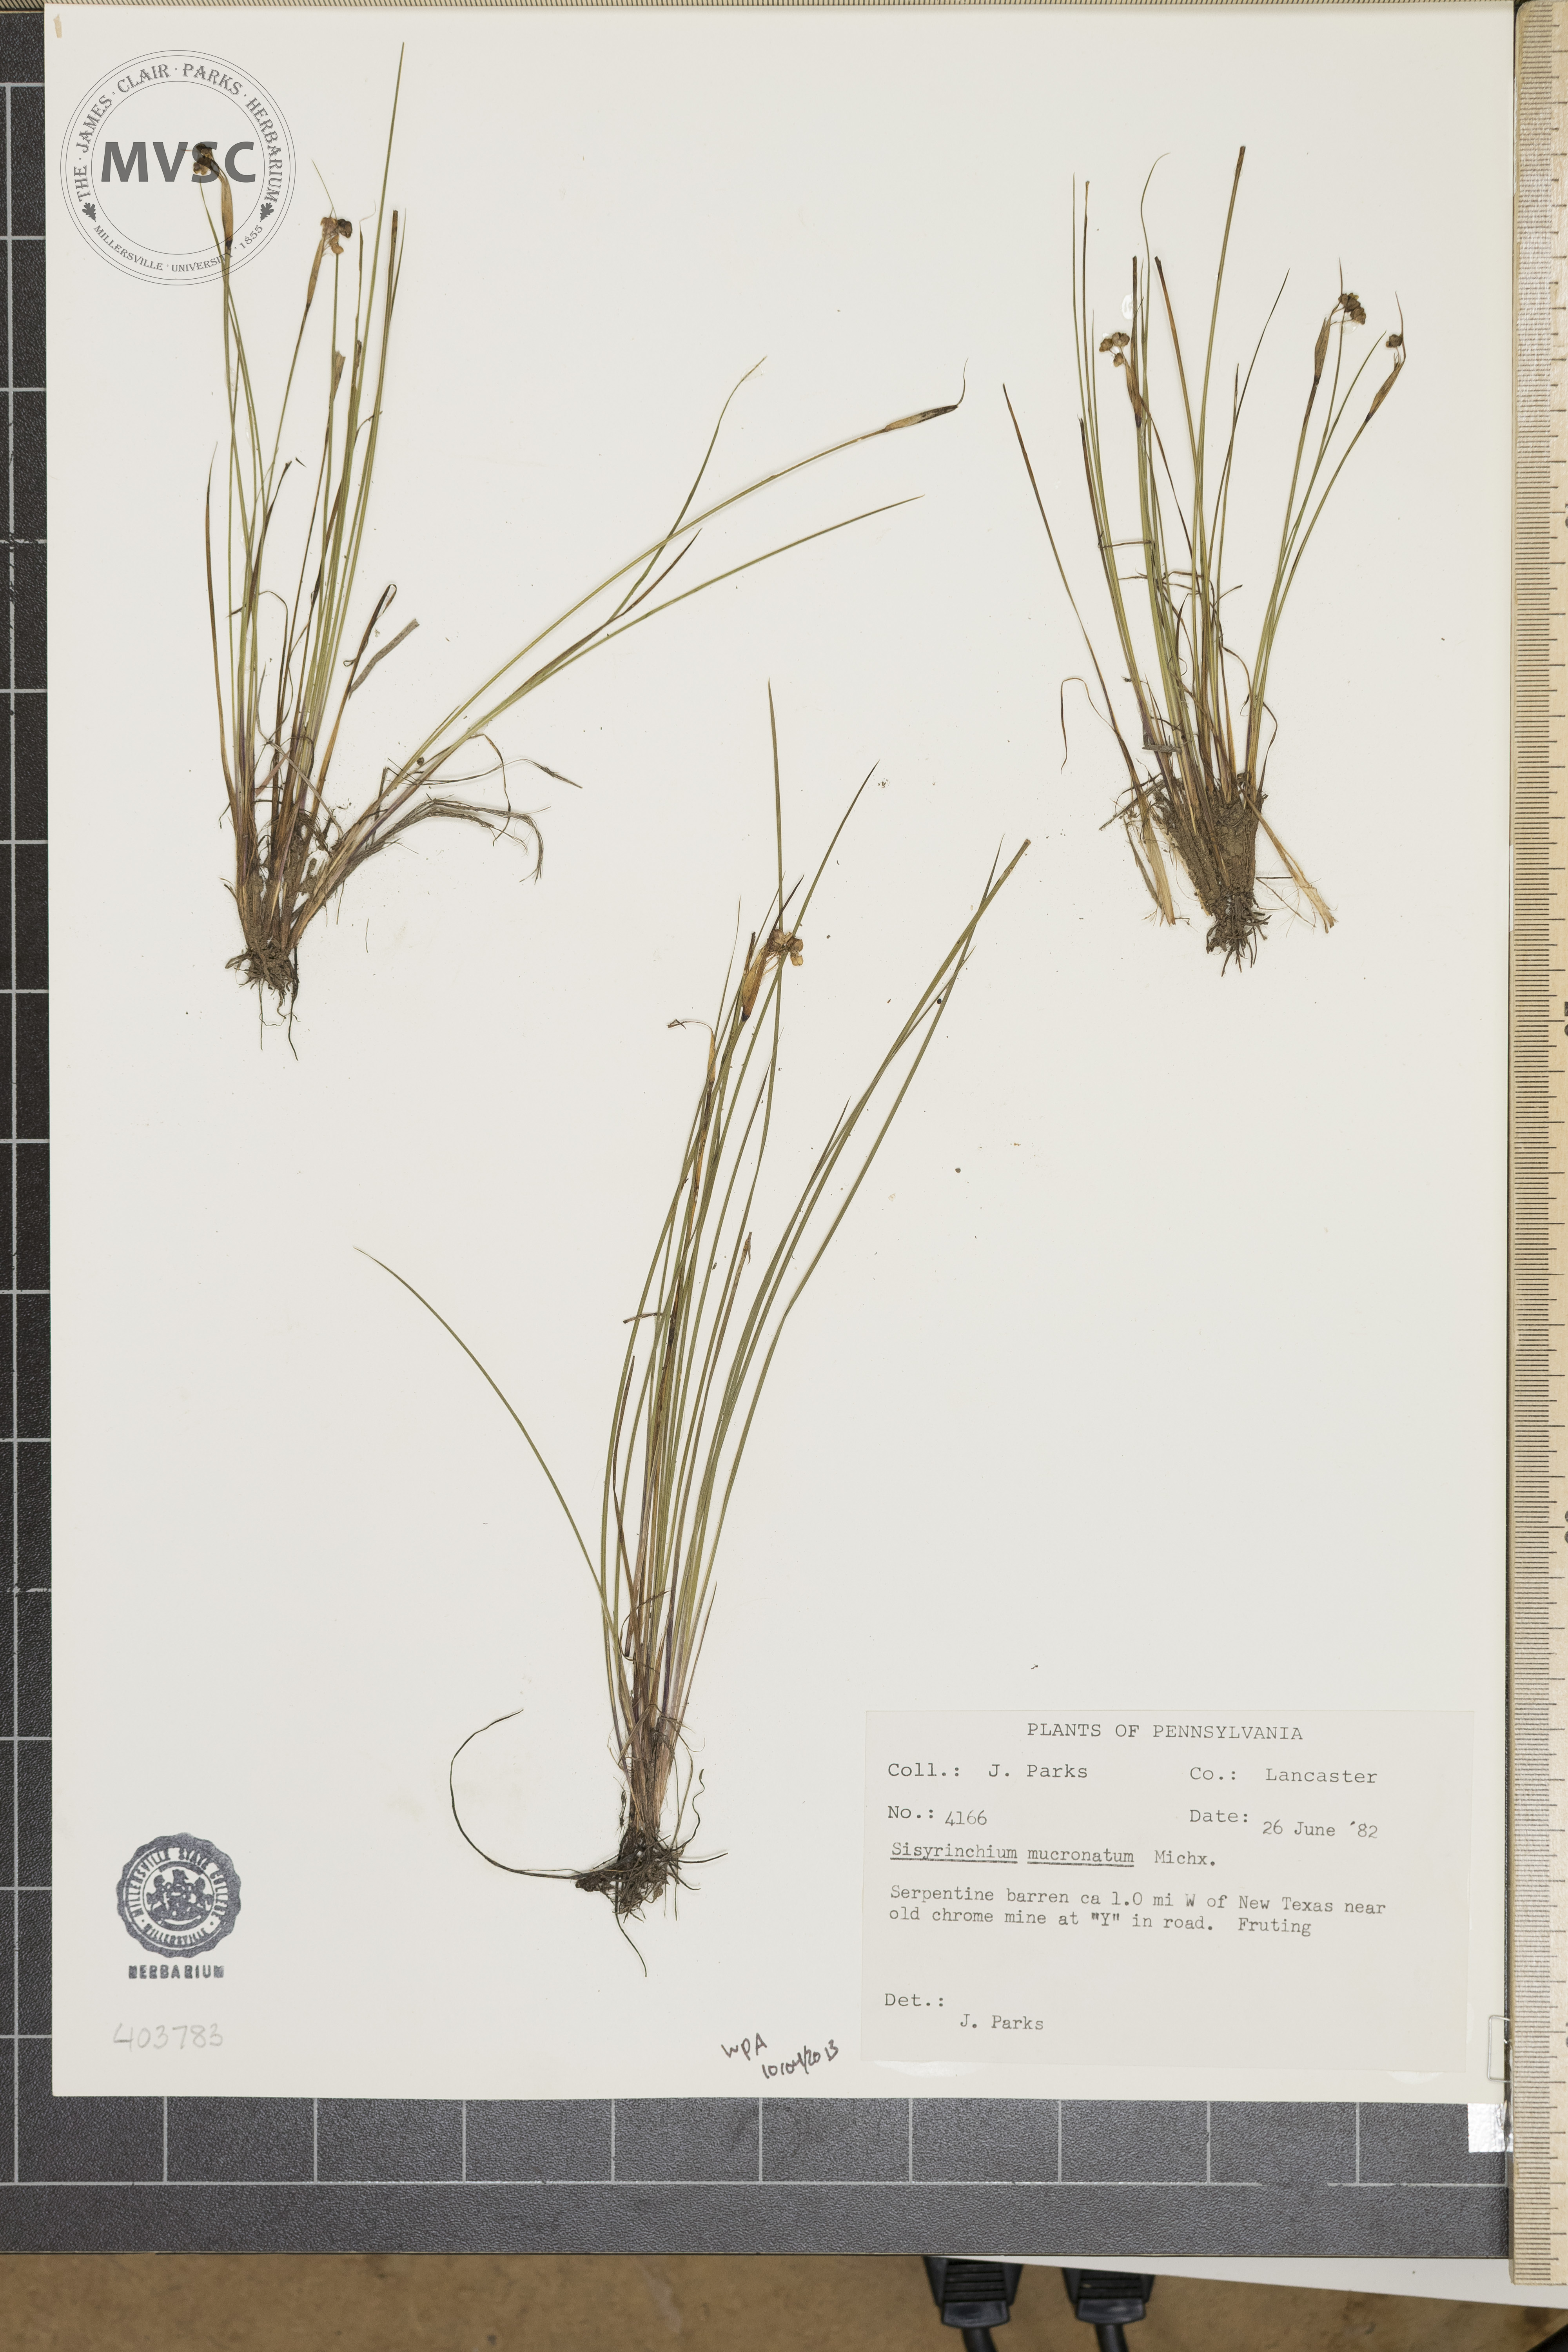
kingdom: Plantae
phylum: Tracheophyta
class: Liliopsida
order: Asparagales
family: Iridaceae
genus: Sisyrinchium
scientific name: Sisyrinchium mucronatum
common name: Eastern blue-eyed-grass
